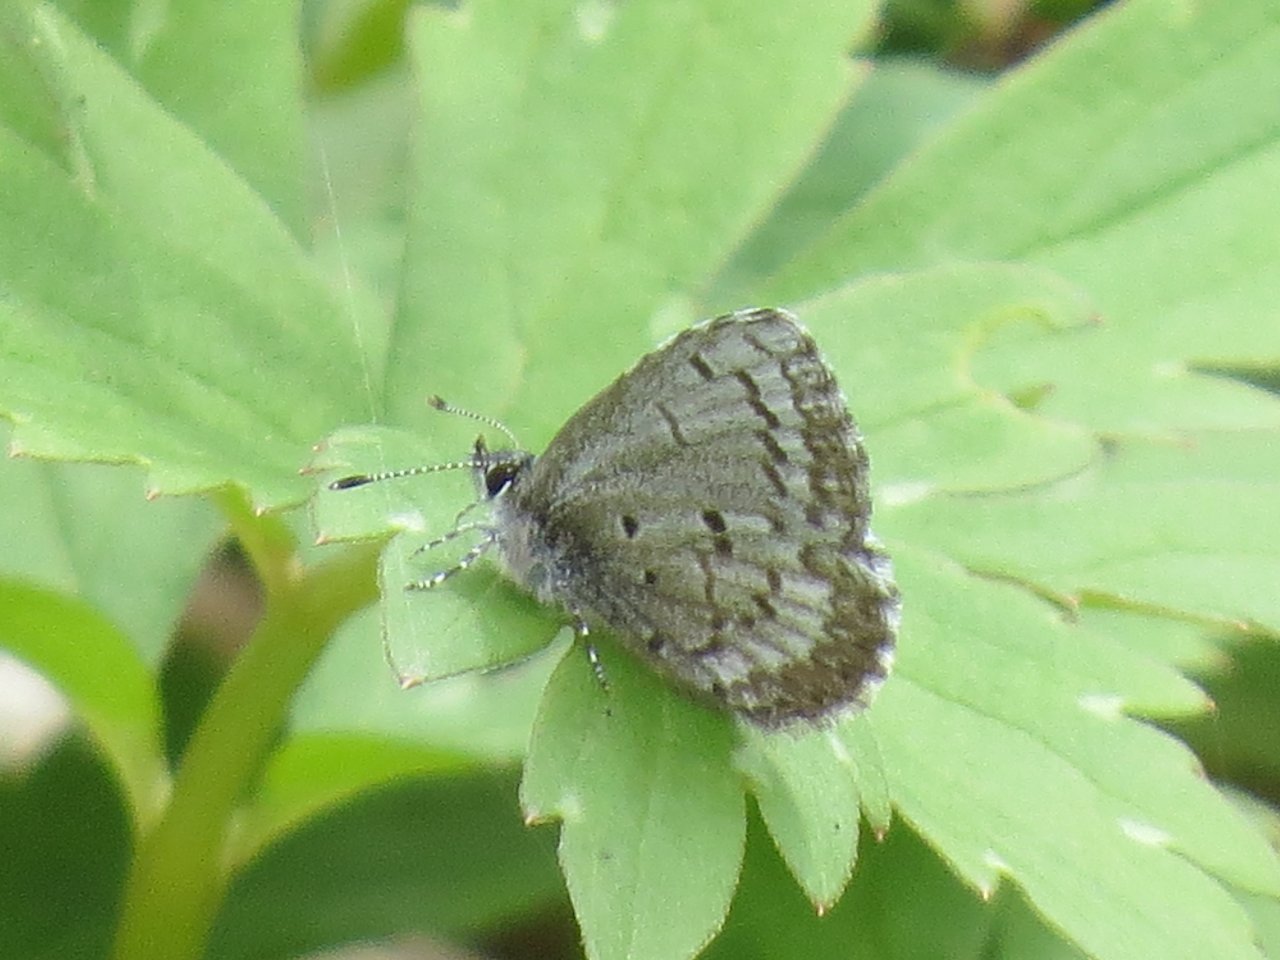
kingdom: Animalia
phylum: Arthropoda
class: Insecta
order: Lepidoptera
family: Lycaenidae
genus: Celastrina
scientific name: Celastrina lucia
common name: Northern Spring Azure
